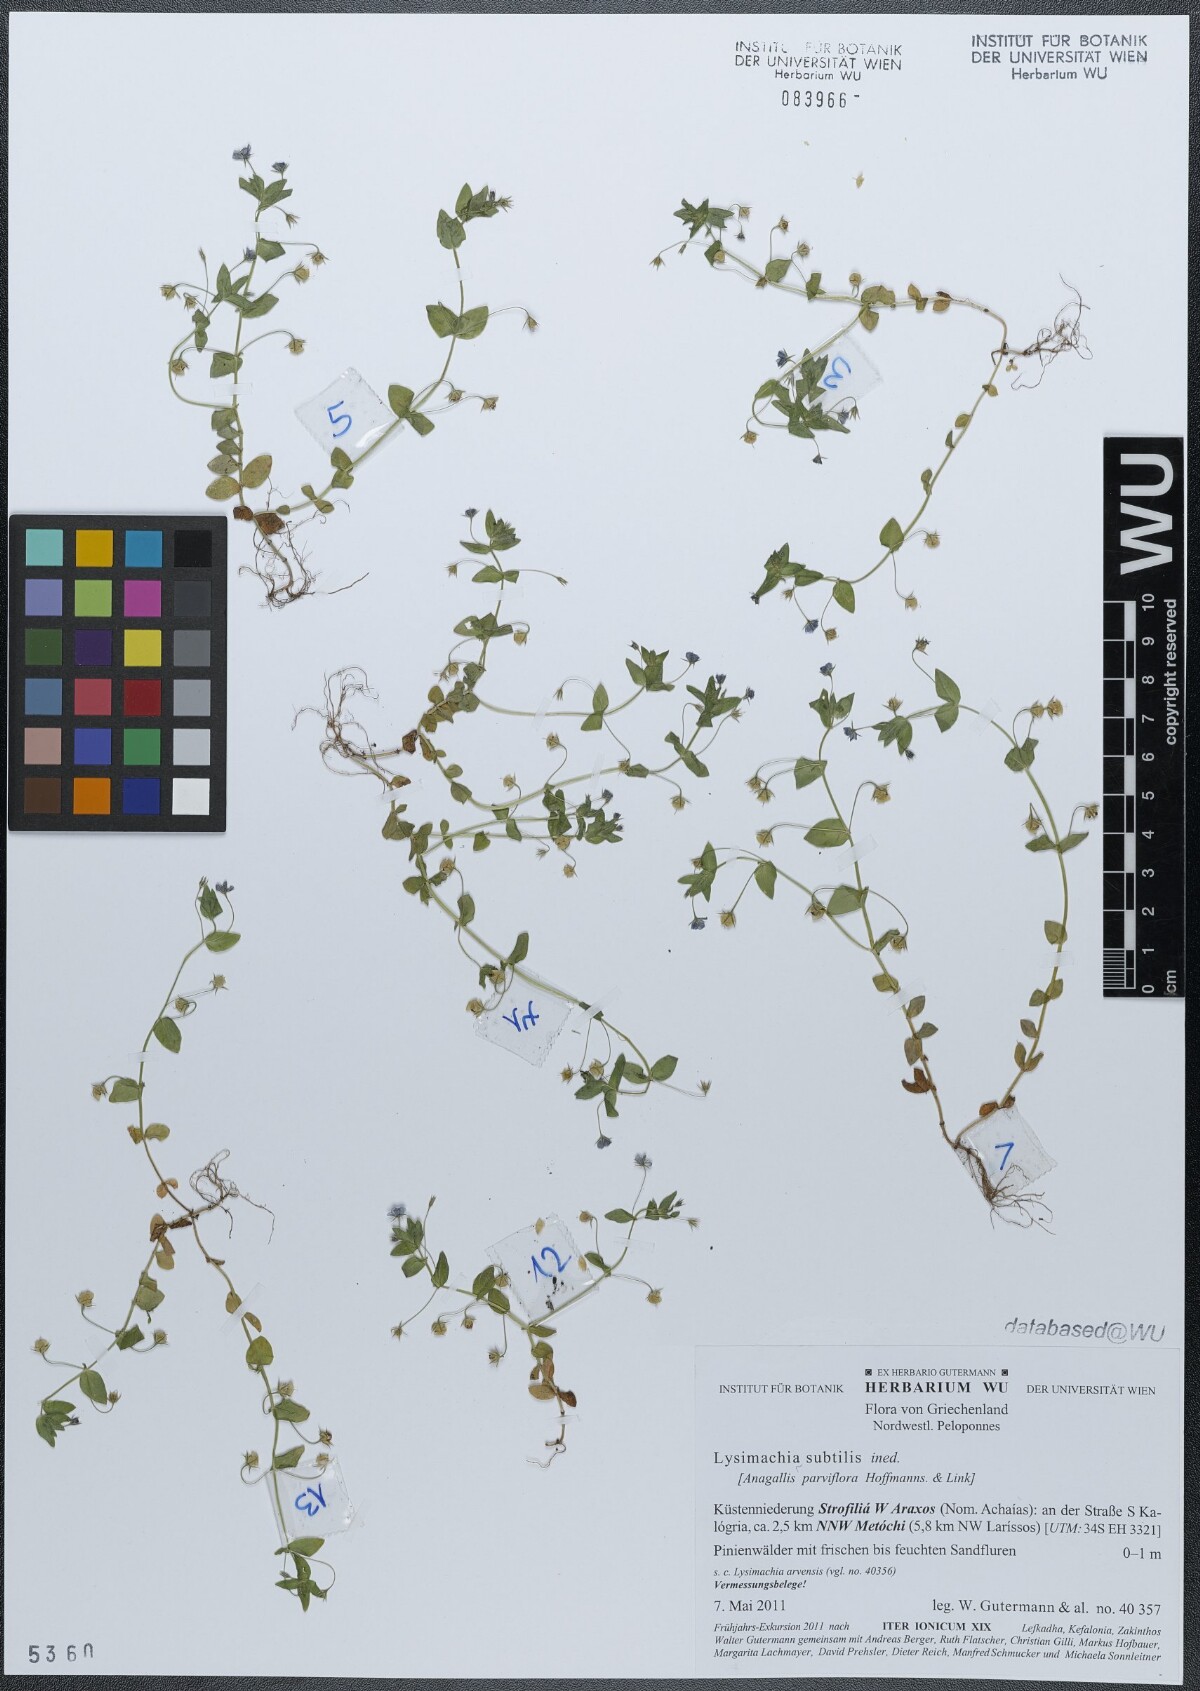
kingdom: Plantae
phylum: Tracheophyta
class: Magnoliopsida
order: Ericales
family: Primulaceae
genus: Lysimachia
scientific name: Lysimachia talaverae
